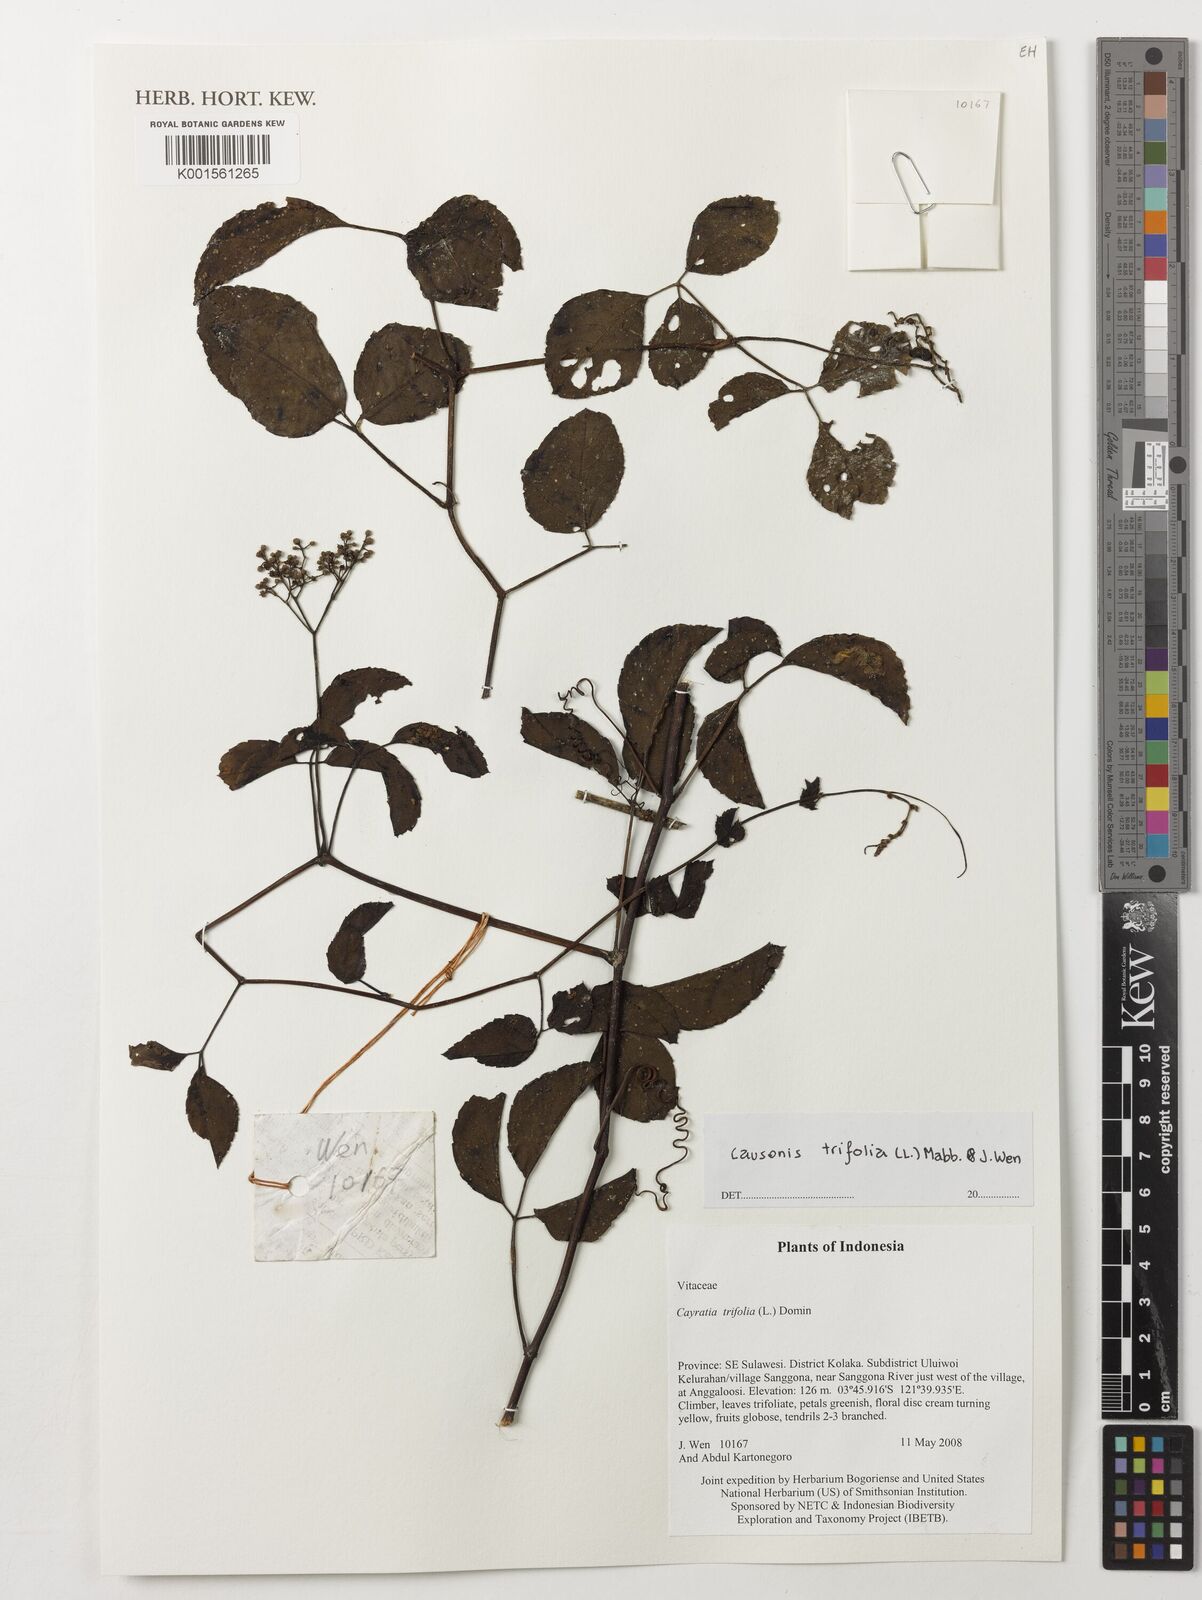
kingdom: Plantae
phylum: Tracheophyta
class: Magnoliopsida
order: Vitales
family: Vitaceae
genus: Causonis
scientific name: Causonis trifolia
